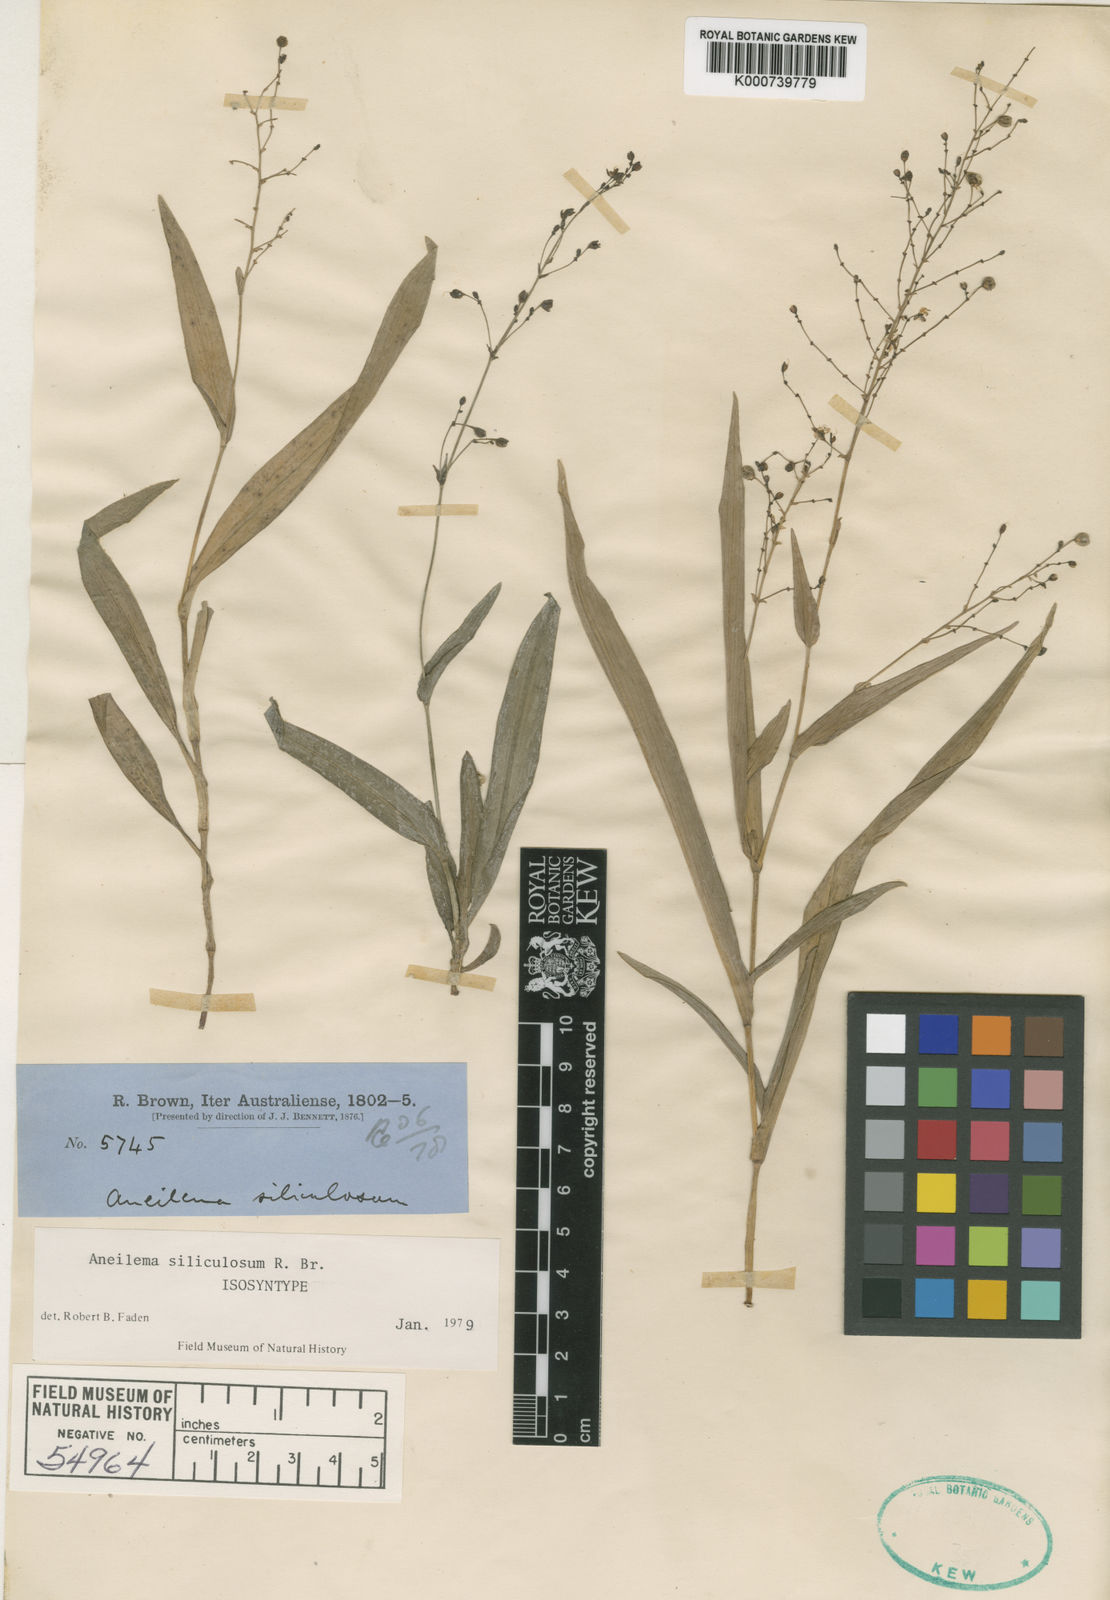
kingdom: Plantae
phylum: Tracheophyta
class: Liliopsida
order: Commelinales
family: Commelinaceae
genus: Aneilema
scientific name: Aneilema siliculosum
